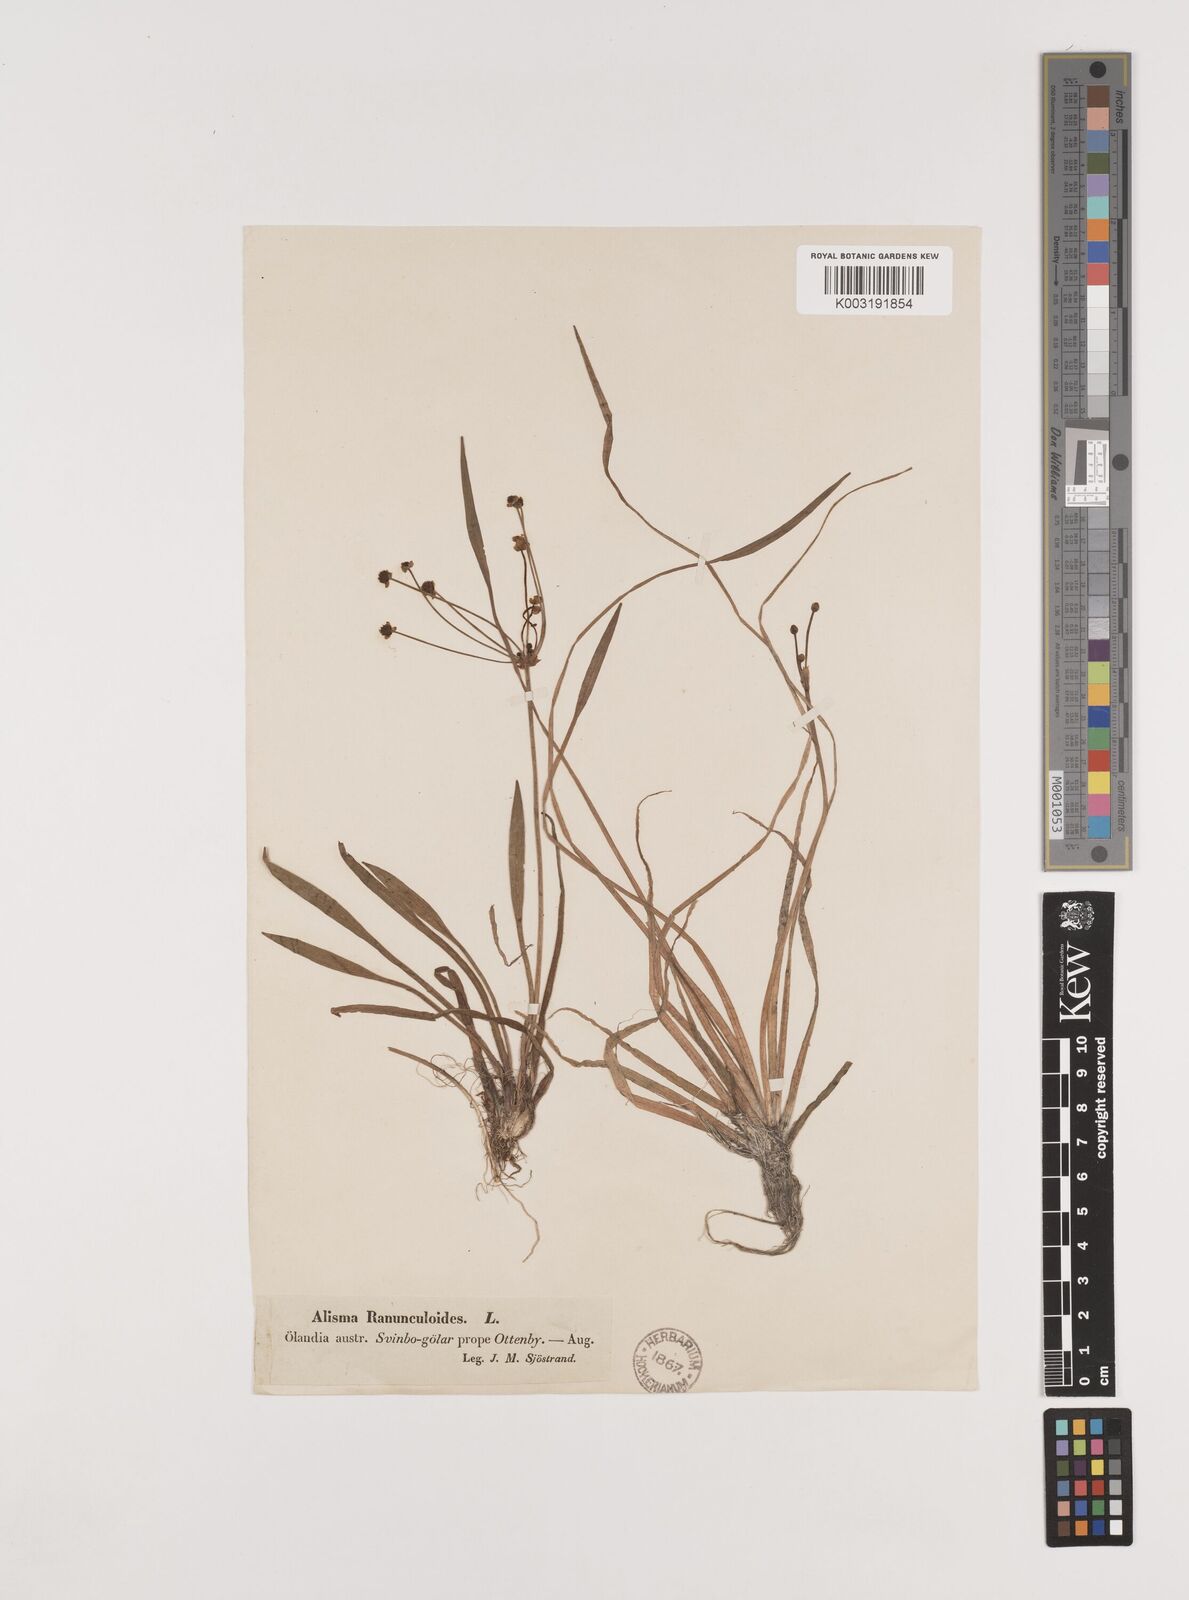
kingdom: Plantae
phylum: Tracheophyta
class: Liliopsida
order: Alismatales
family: Alismataceae
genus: Baldellia
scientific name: Baldellia ranunculoides
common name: Lesser water-plantain
